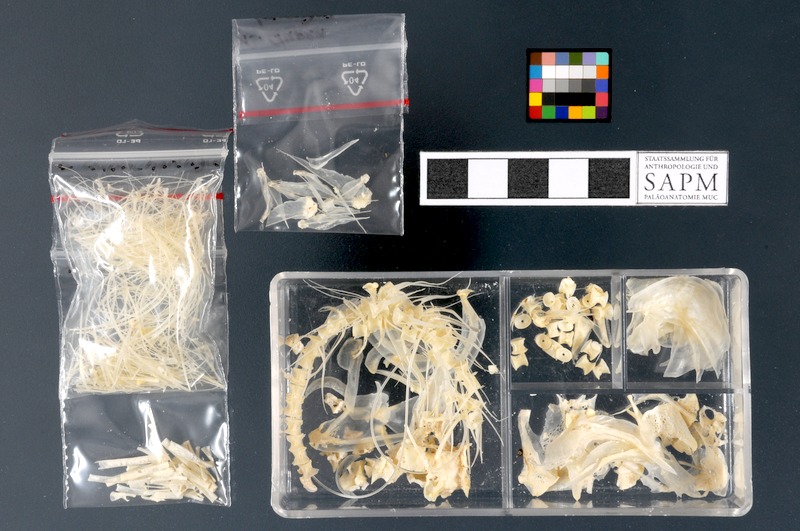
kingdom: Animalia
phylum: Chordata
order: Clupeiformes
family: Clupeidae
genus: Clupea
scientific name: Clupea harengus
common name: Herring
